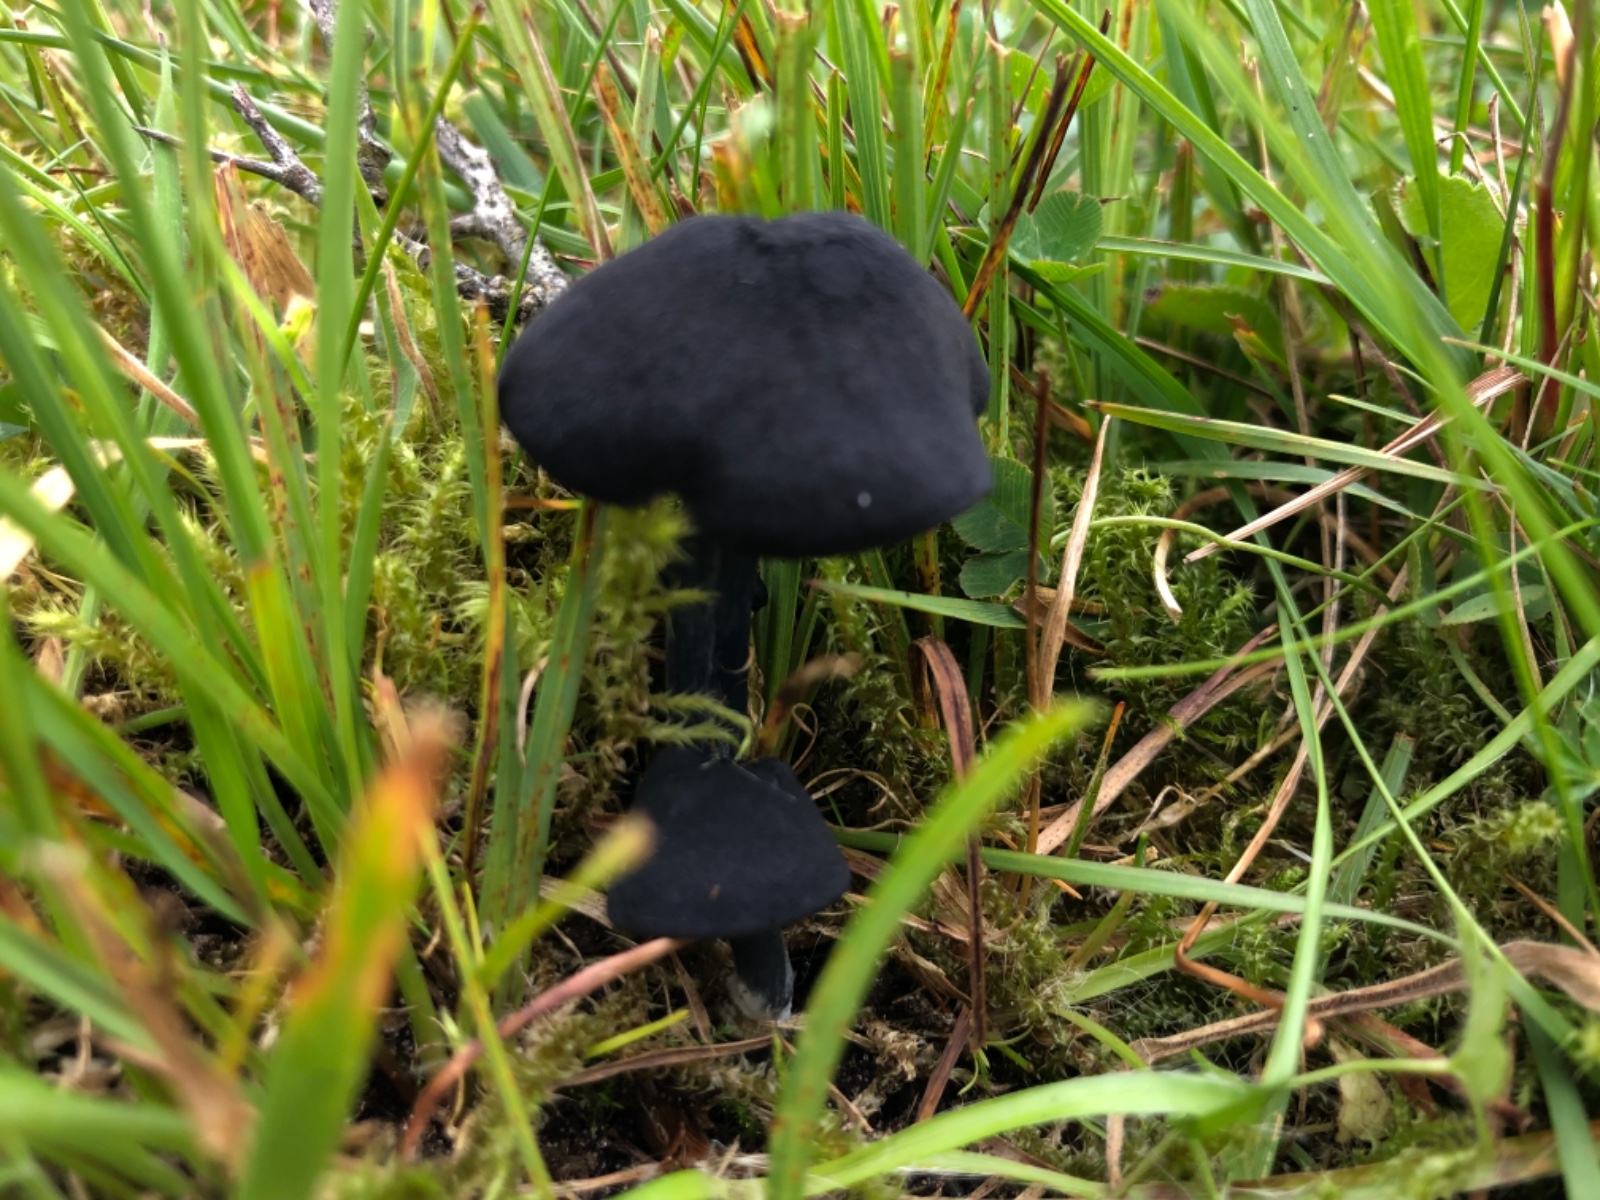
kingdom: Fungi
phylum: Basidiomycota
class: Agaricomycetes
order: Agaricales
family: Entolomataceae
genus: Entoloma
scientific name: Entoloma chalybeum
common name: blåbladet rødblad
